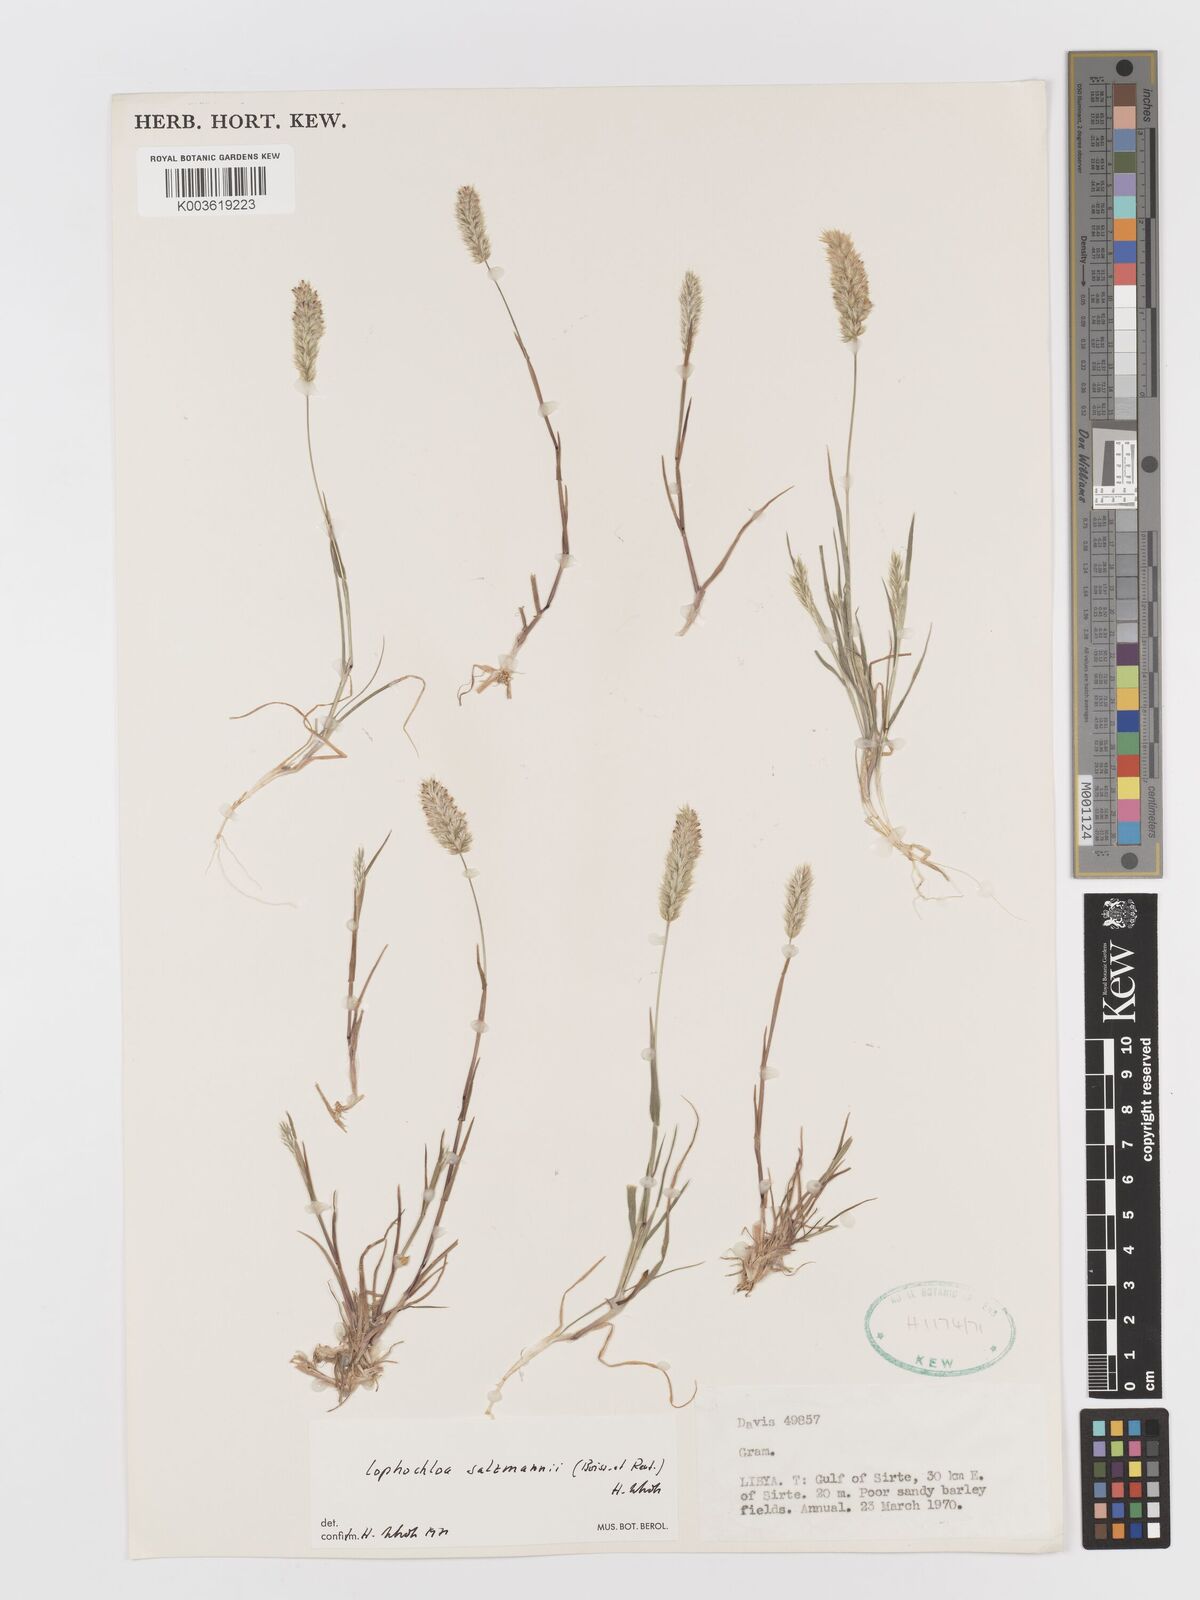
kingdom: Plantae
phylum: Tracheophyta
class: Liliopsida
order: Poales
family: Poaceae
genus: Rostraria
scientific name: Rostraria salzmannii
